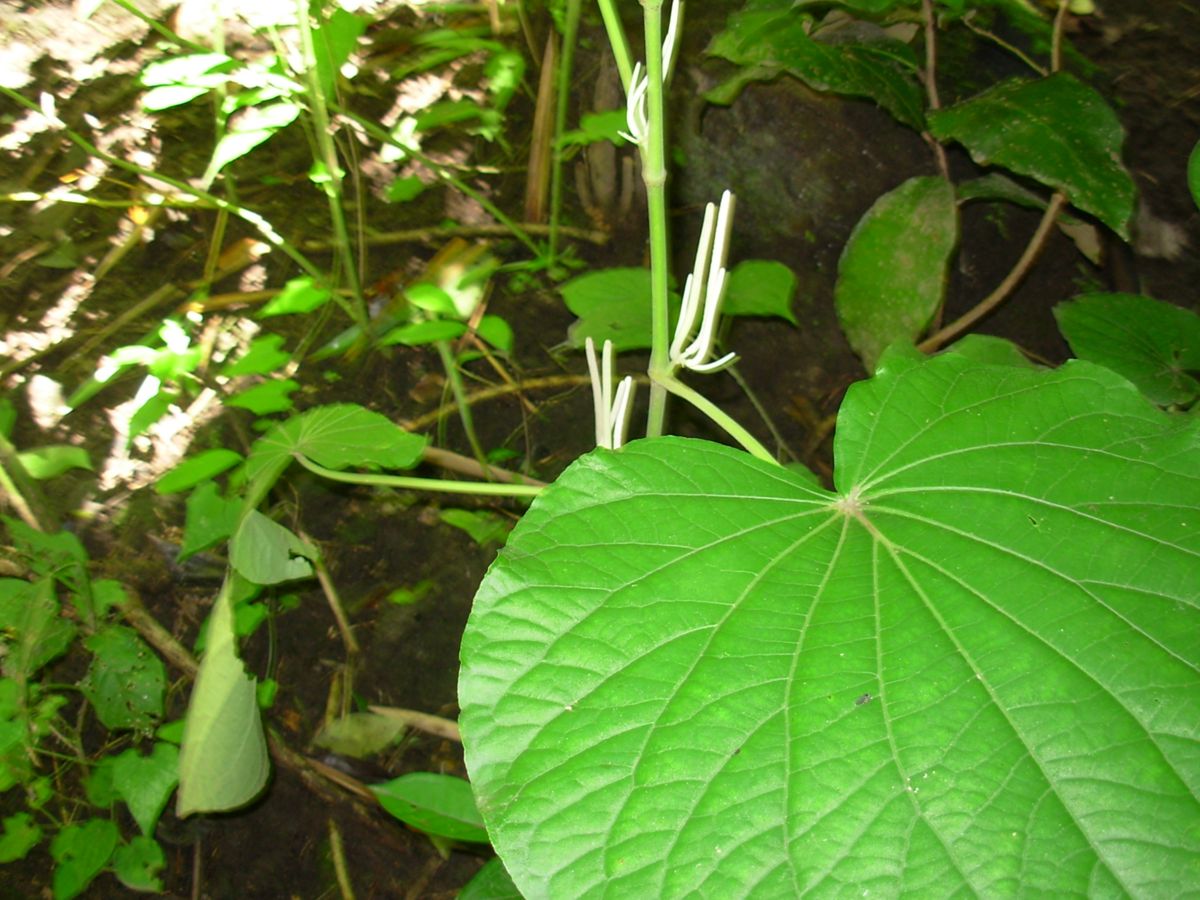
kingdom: Plantae
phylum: Tracheophyta
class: Magnoliopsida
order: Piperales
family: Piperaceae
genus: Piper
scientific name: Piper umbellatum
